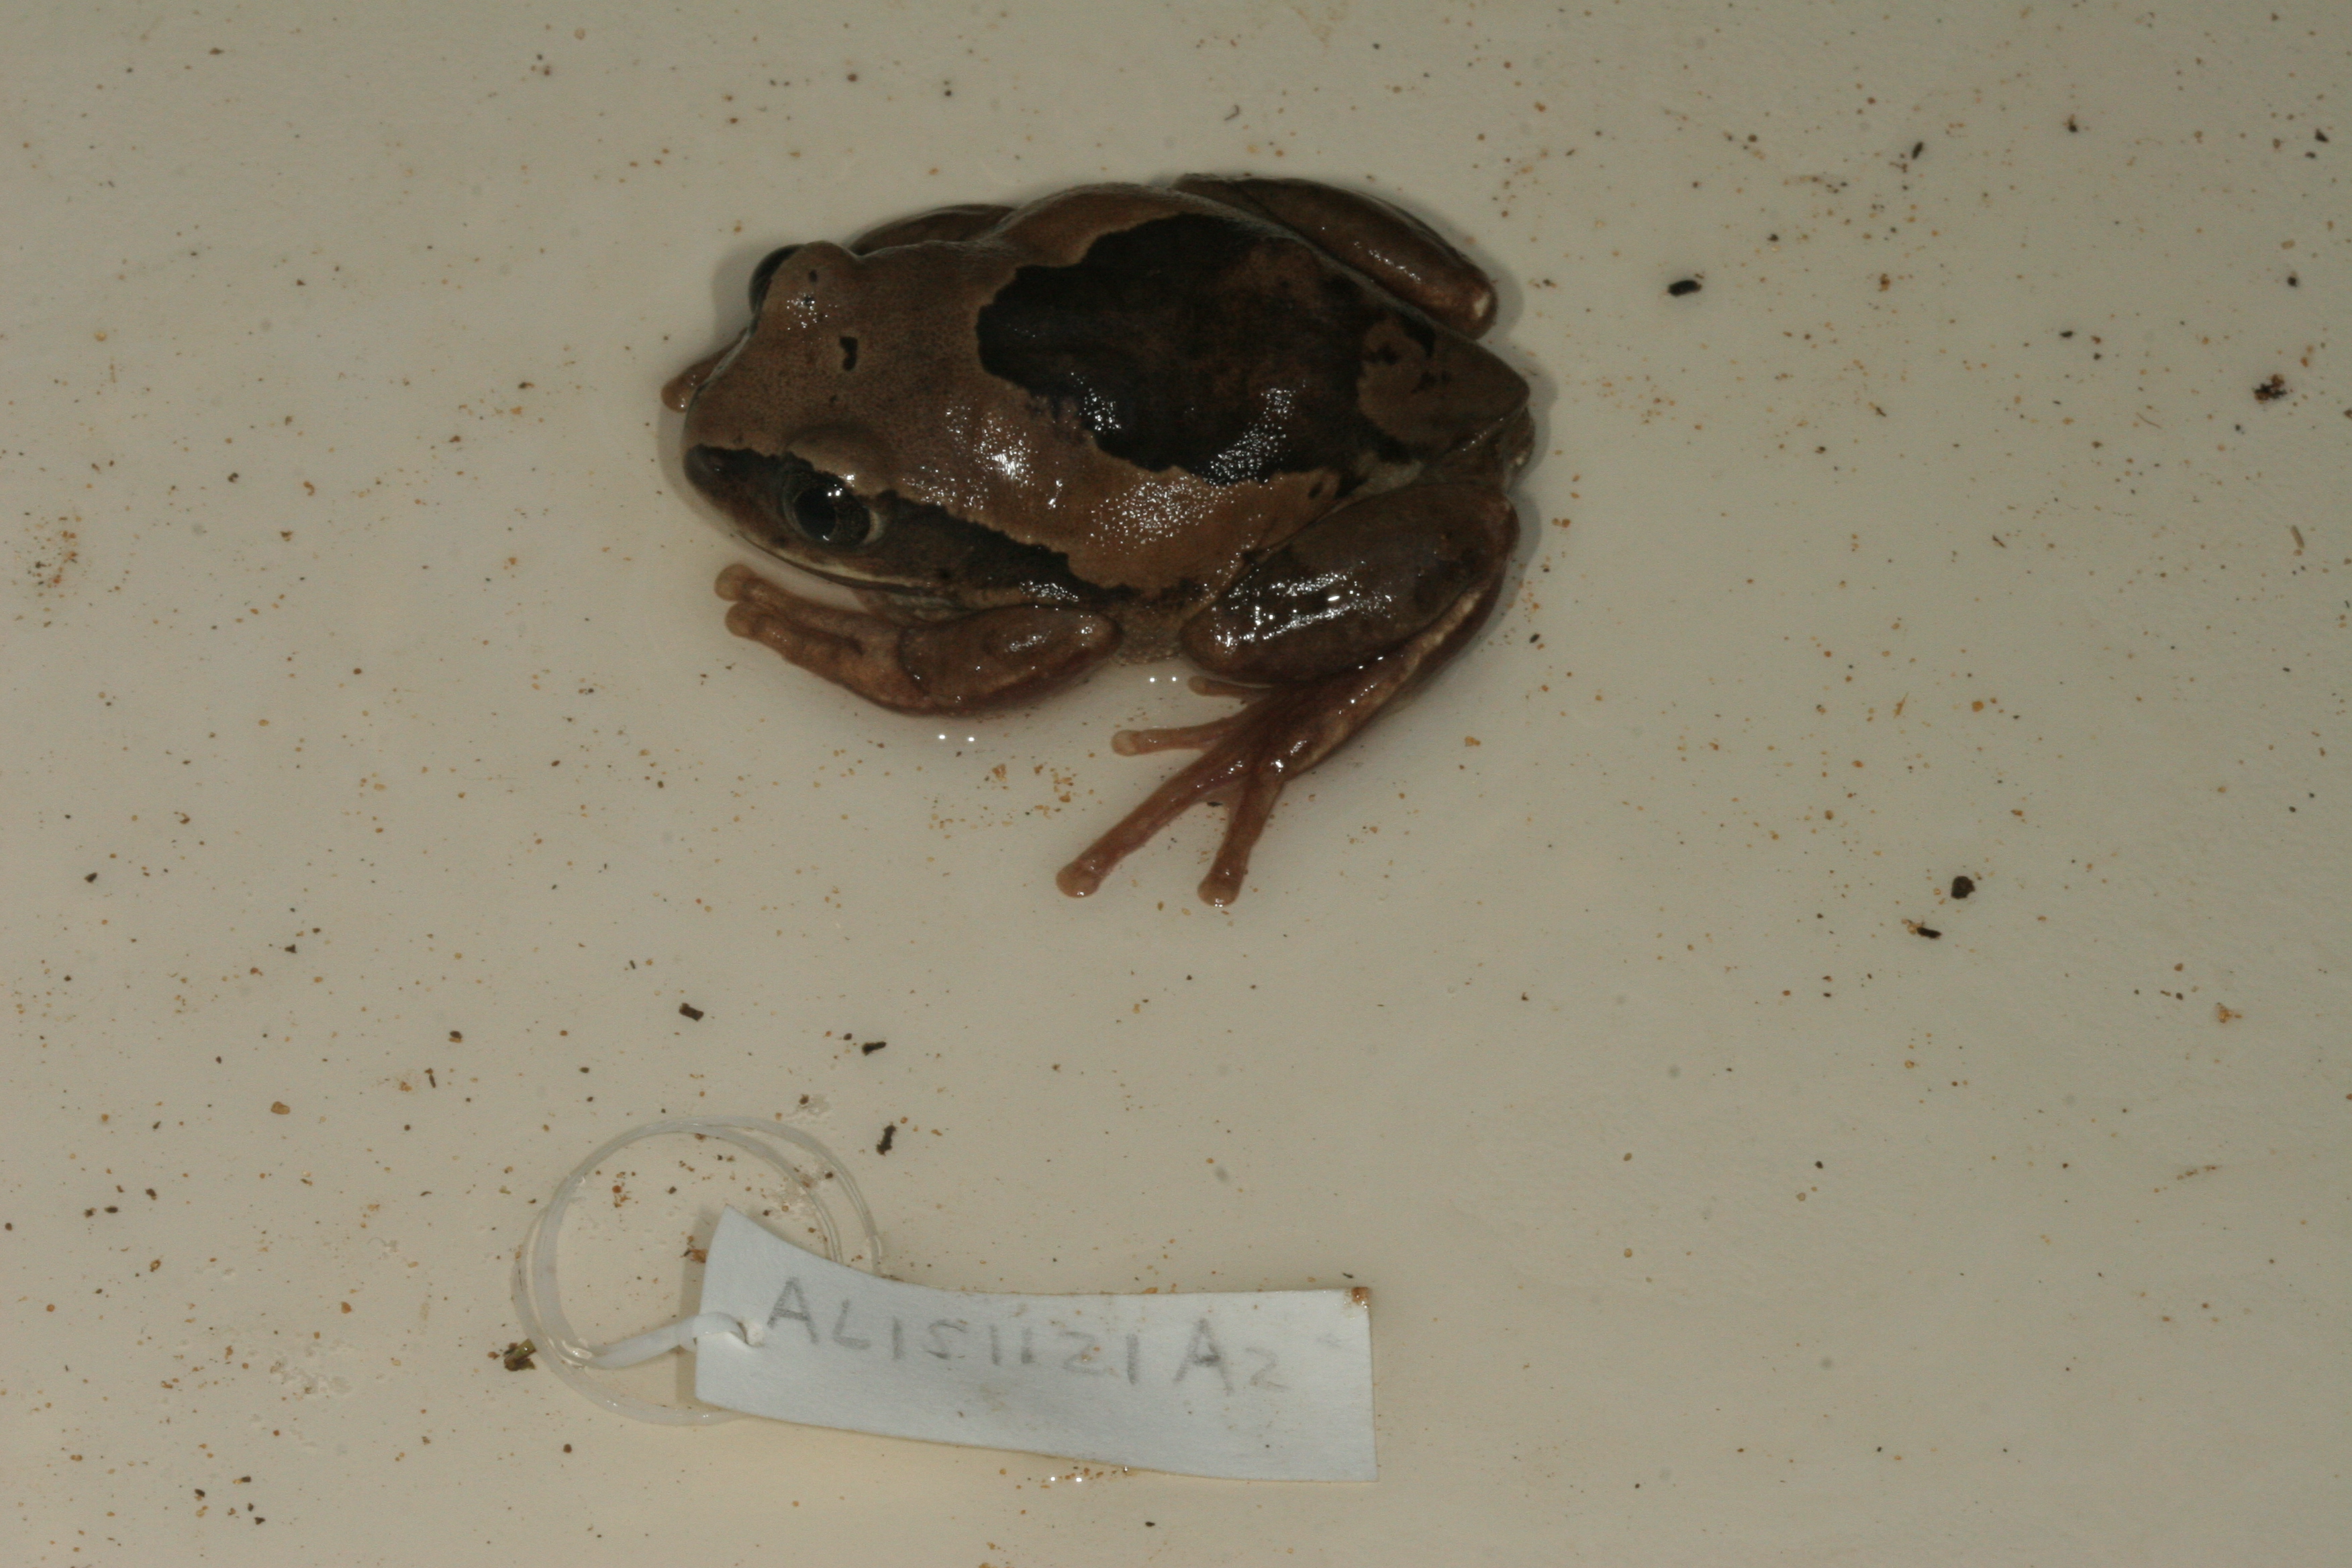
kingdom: Animalia
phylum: Chordata
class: Amphibia
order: Anura
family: Arthroleptidae
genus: Leptopelis
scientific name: Leptopelis mossambicus
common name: Mozambique tree frog
